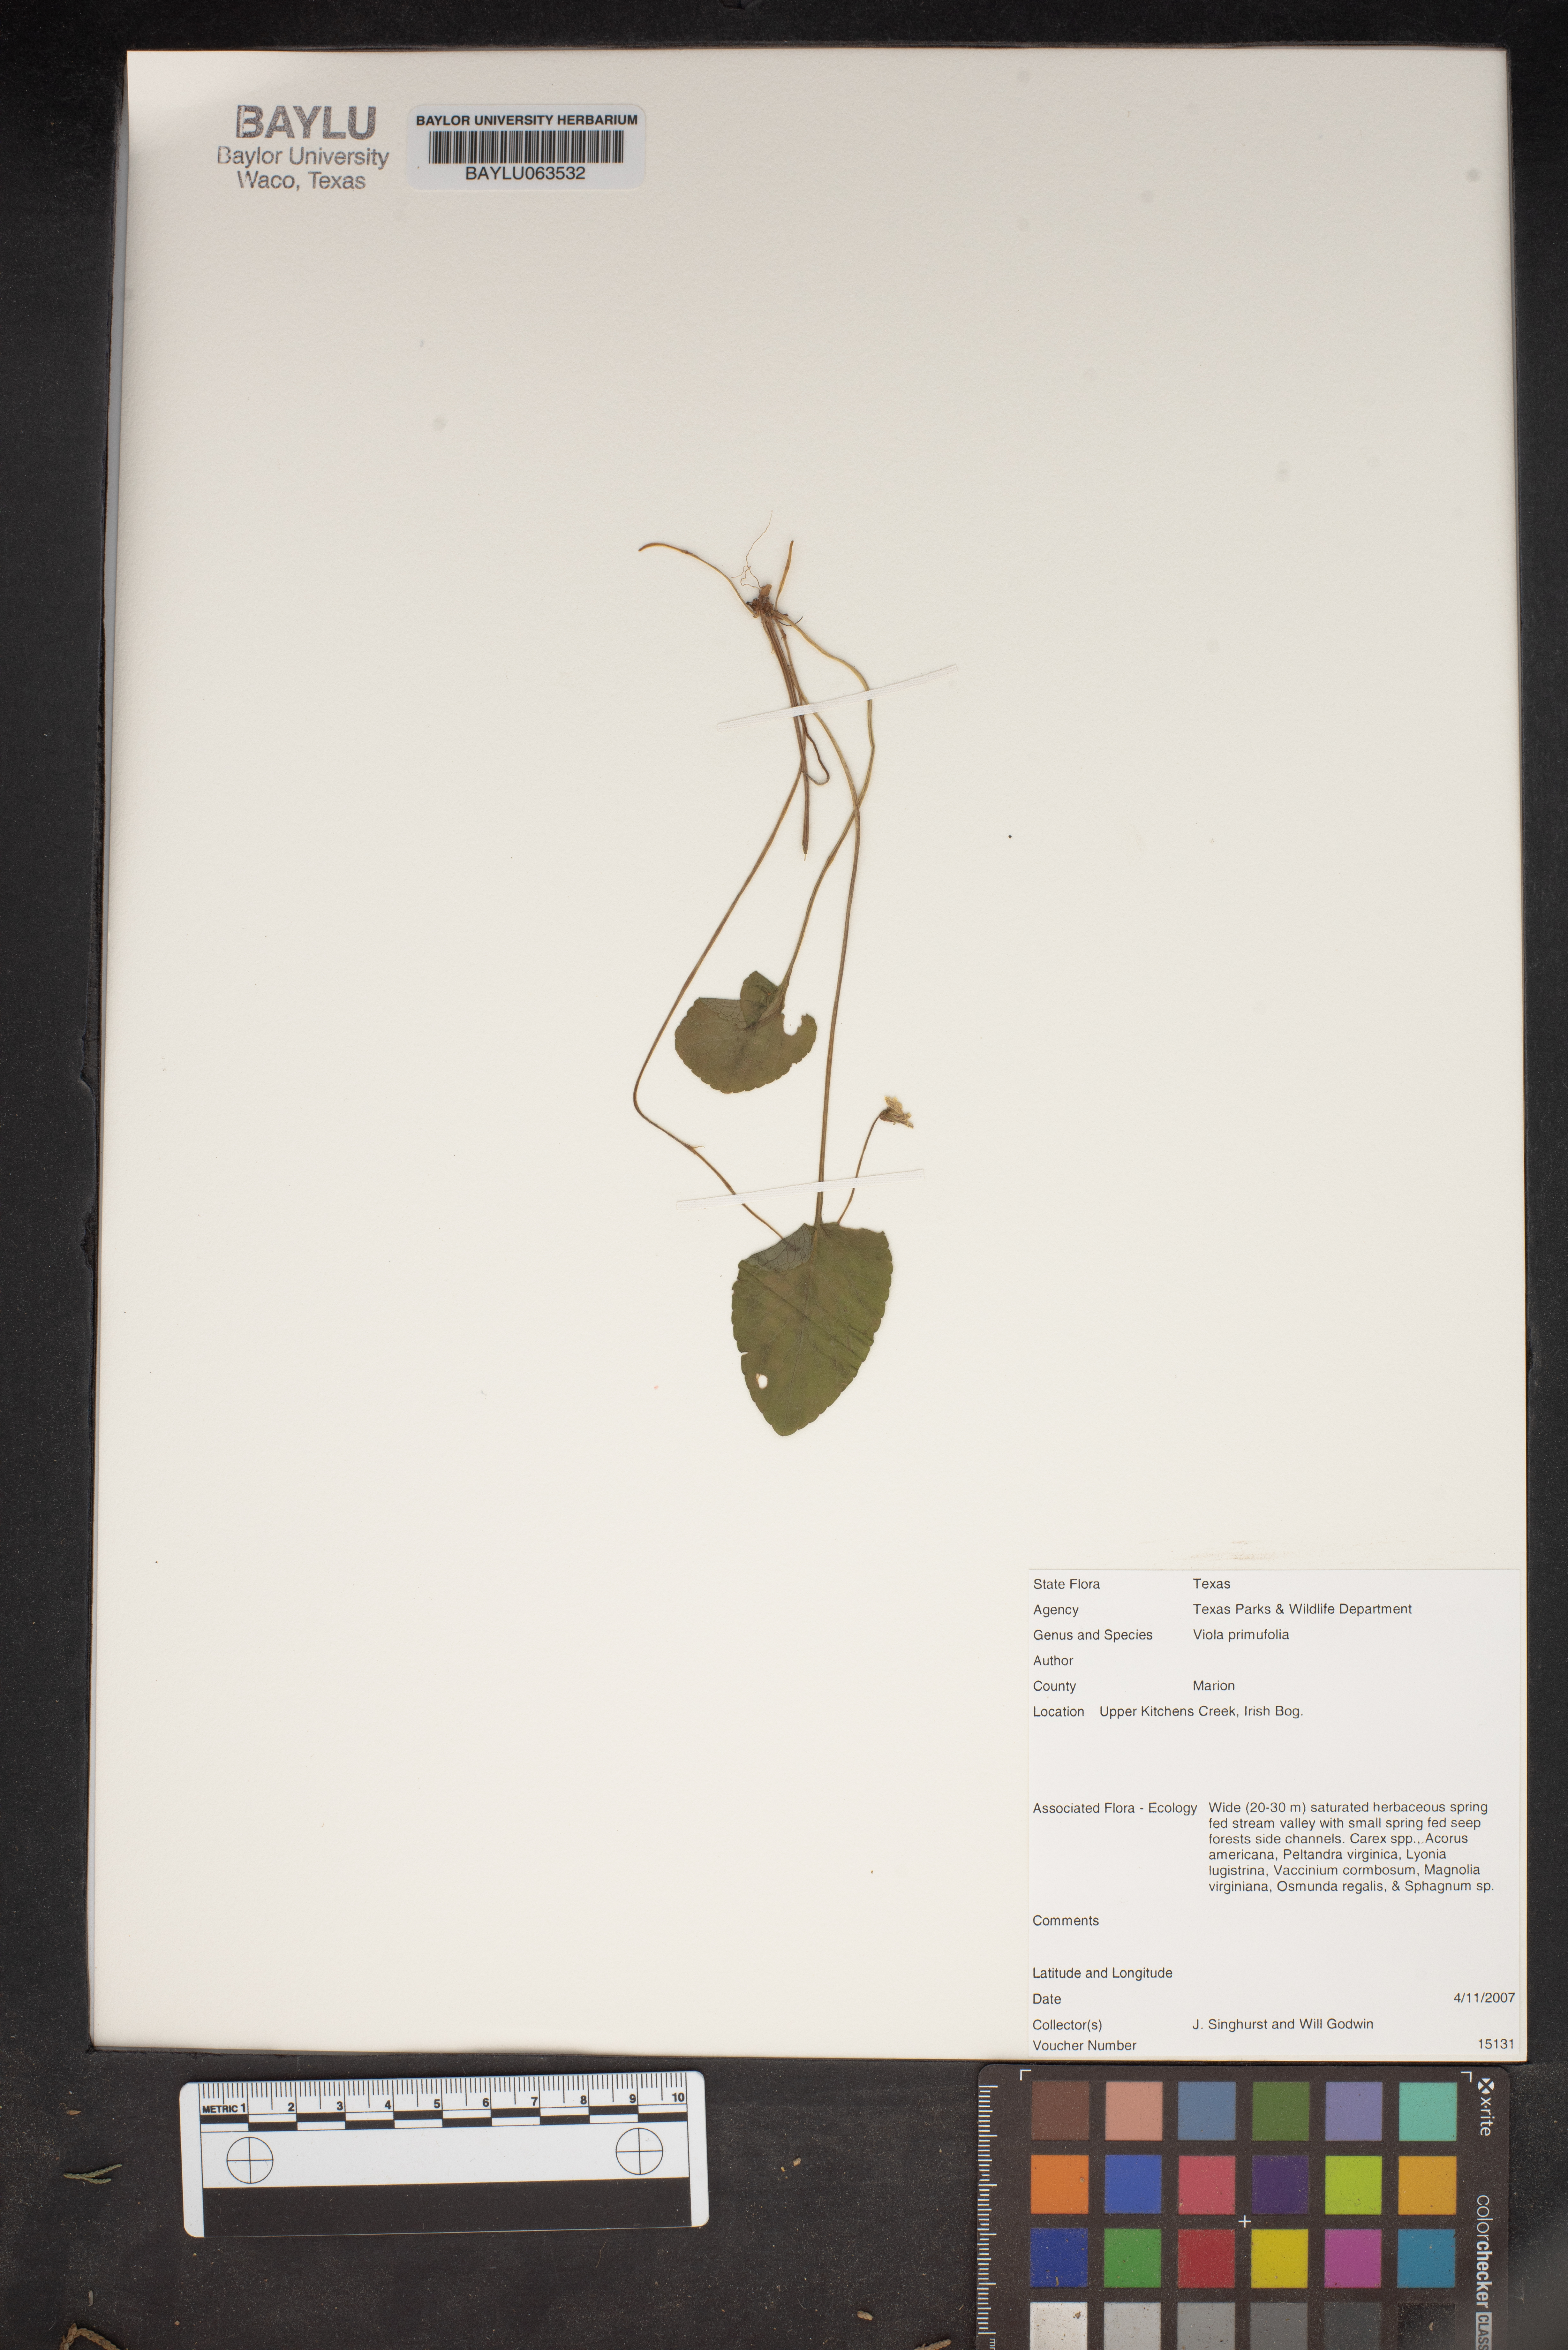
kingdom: Plantae
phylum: Tracheophyta
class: Magnoliopsida
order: Malpighiales
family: Violaceae
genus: Viola
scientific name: Viola primulifolia
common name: Primrose-leaf violet
